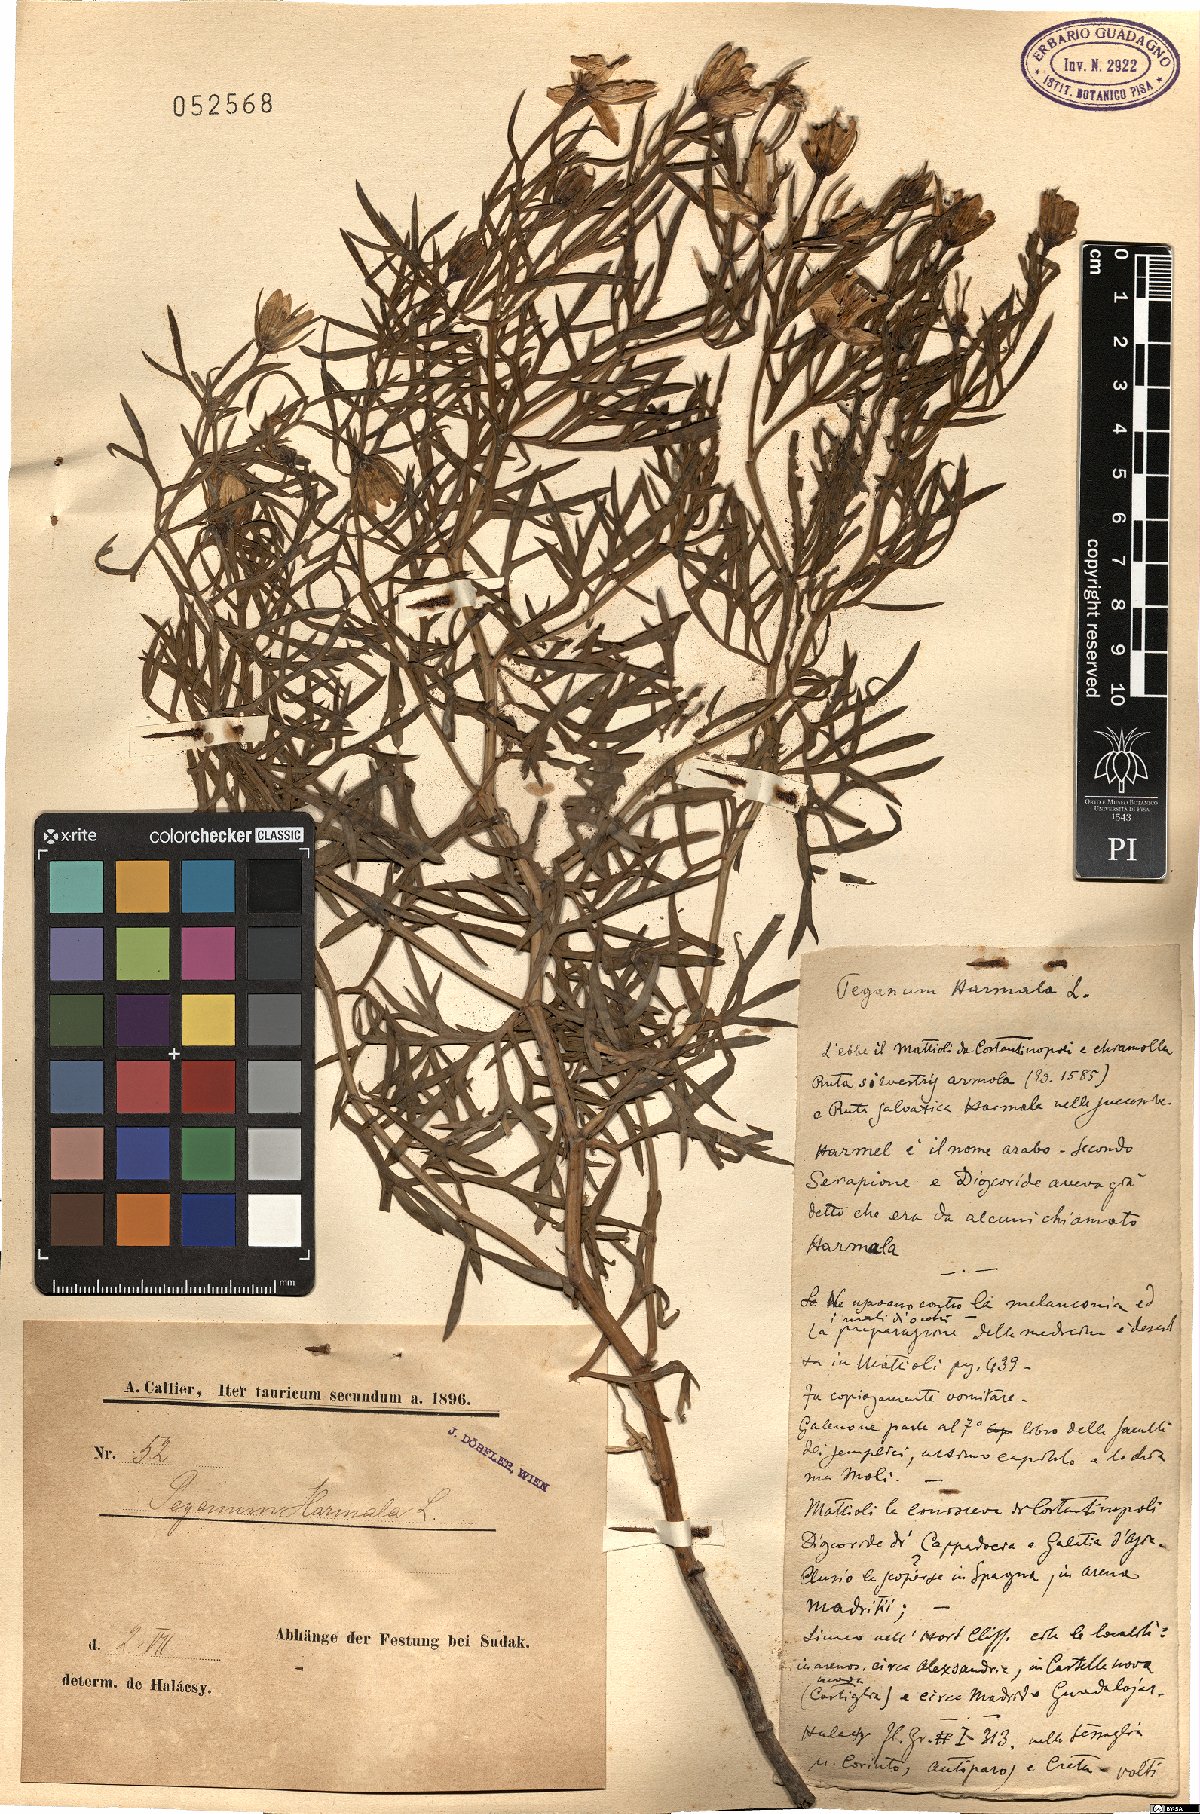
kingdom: Plantae
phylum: Tracheophyta
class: Magnoliopsida
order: Sapindales
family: Tetradiclidaceae
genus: Peganum
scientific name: Peganum harmala
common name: Harmal peganum
